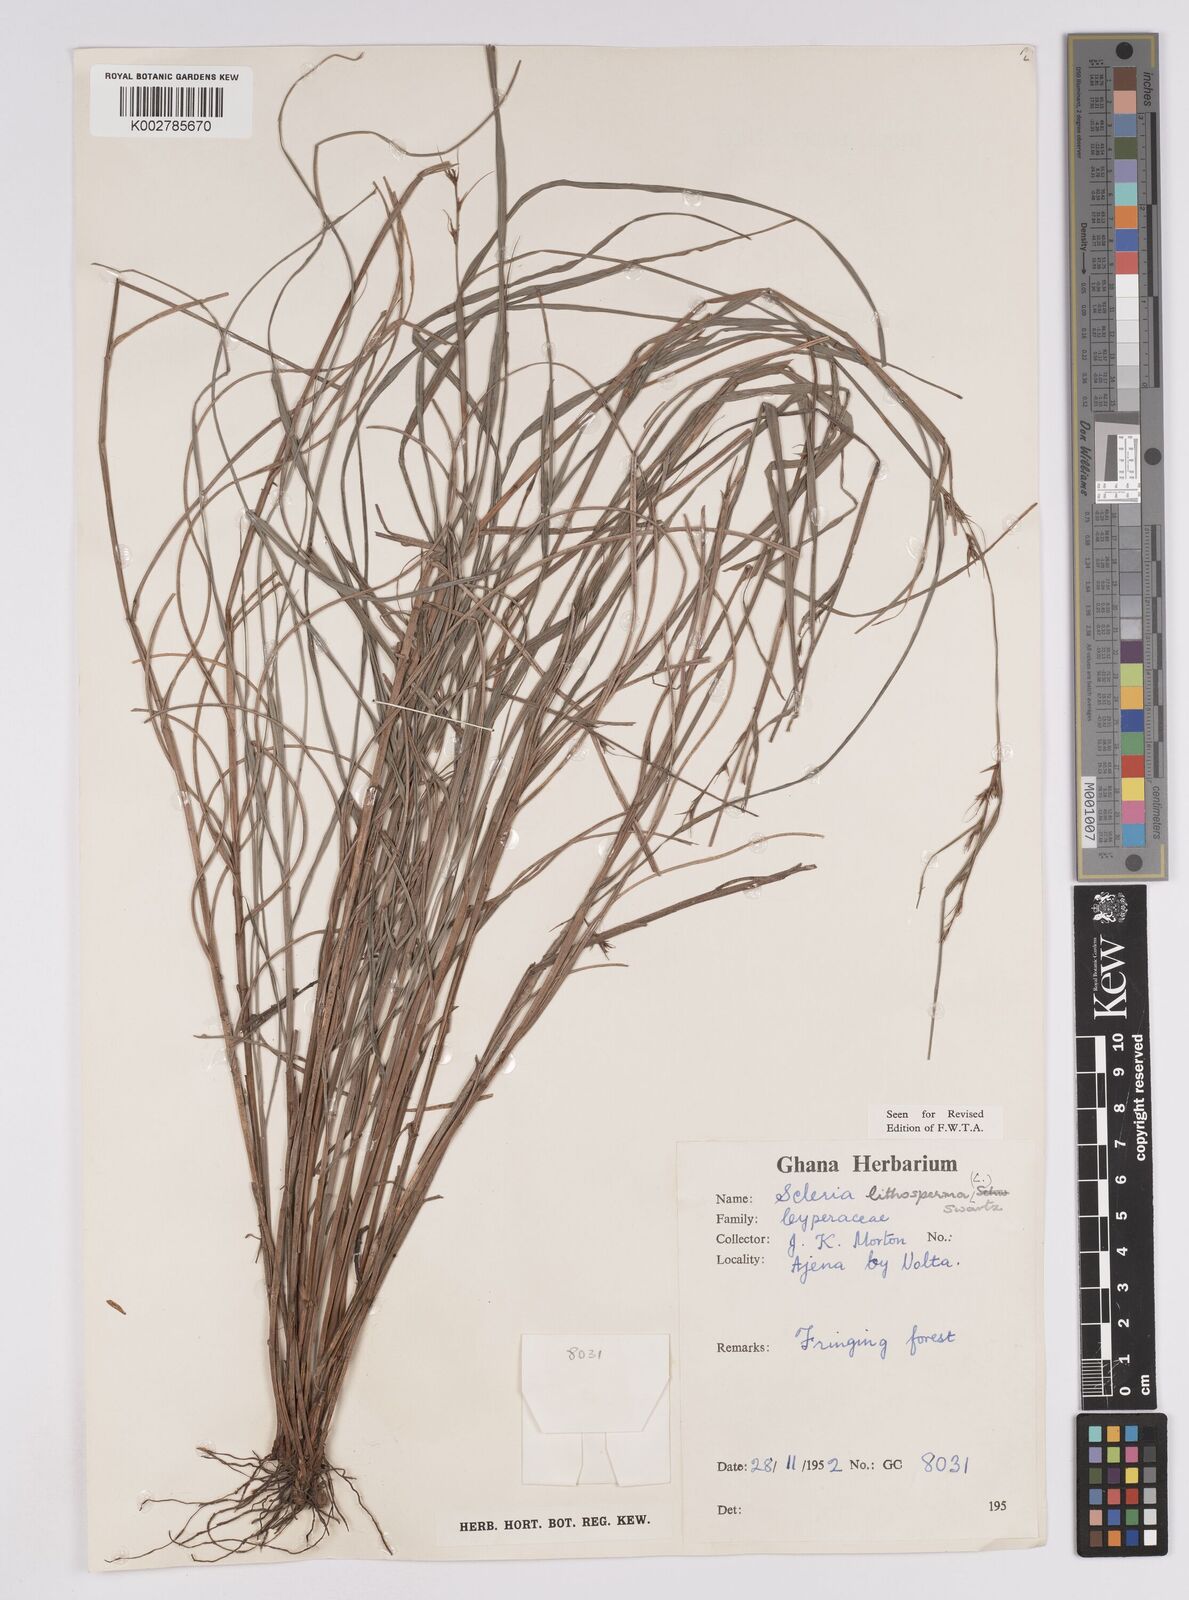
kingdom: Plantae
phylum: Tracheophyta
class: Liliopsida
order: Poales
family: Cyperaceae
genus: Scleria
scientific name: Scleria lithosperma
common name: Florida keys nut-rush
